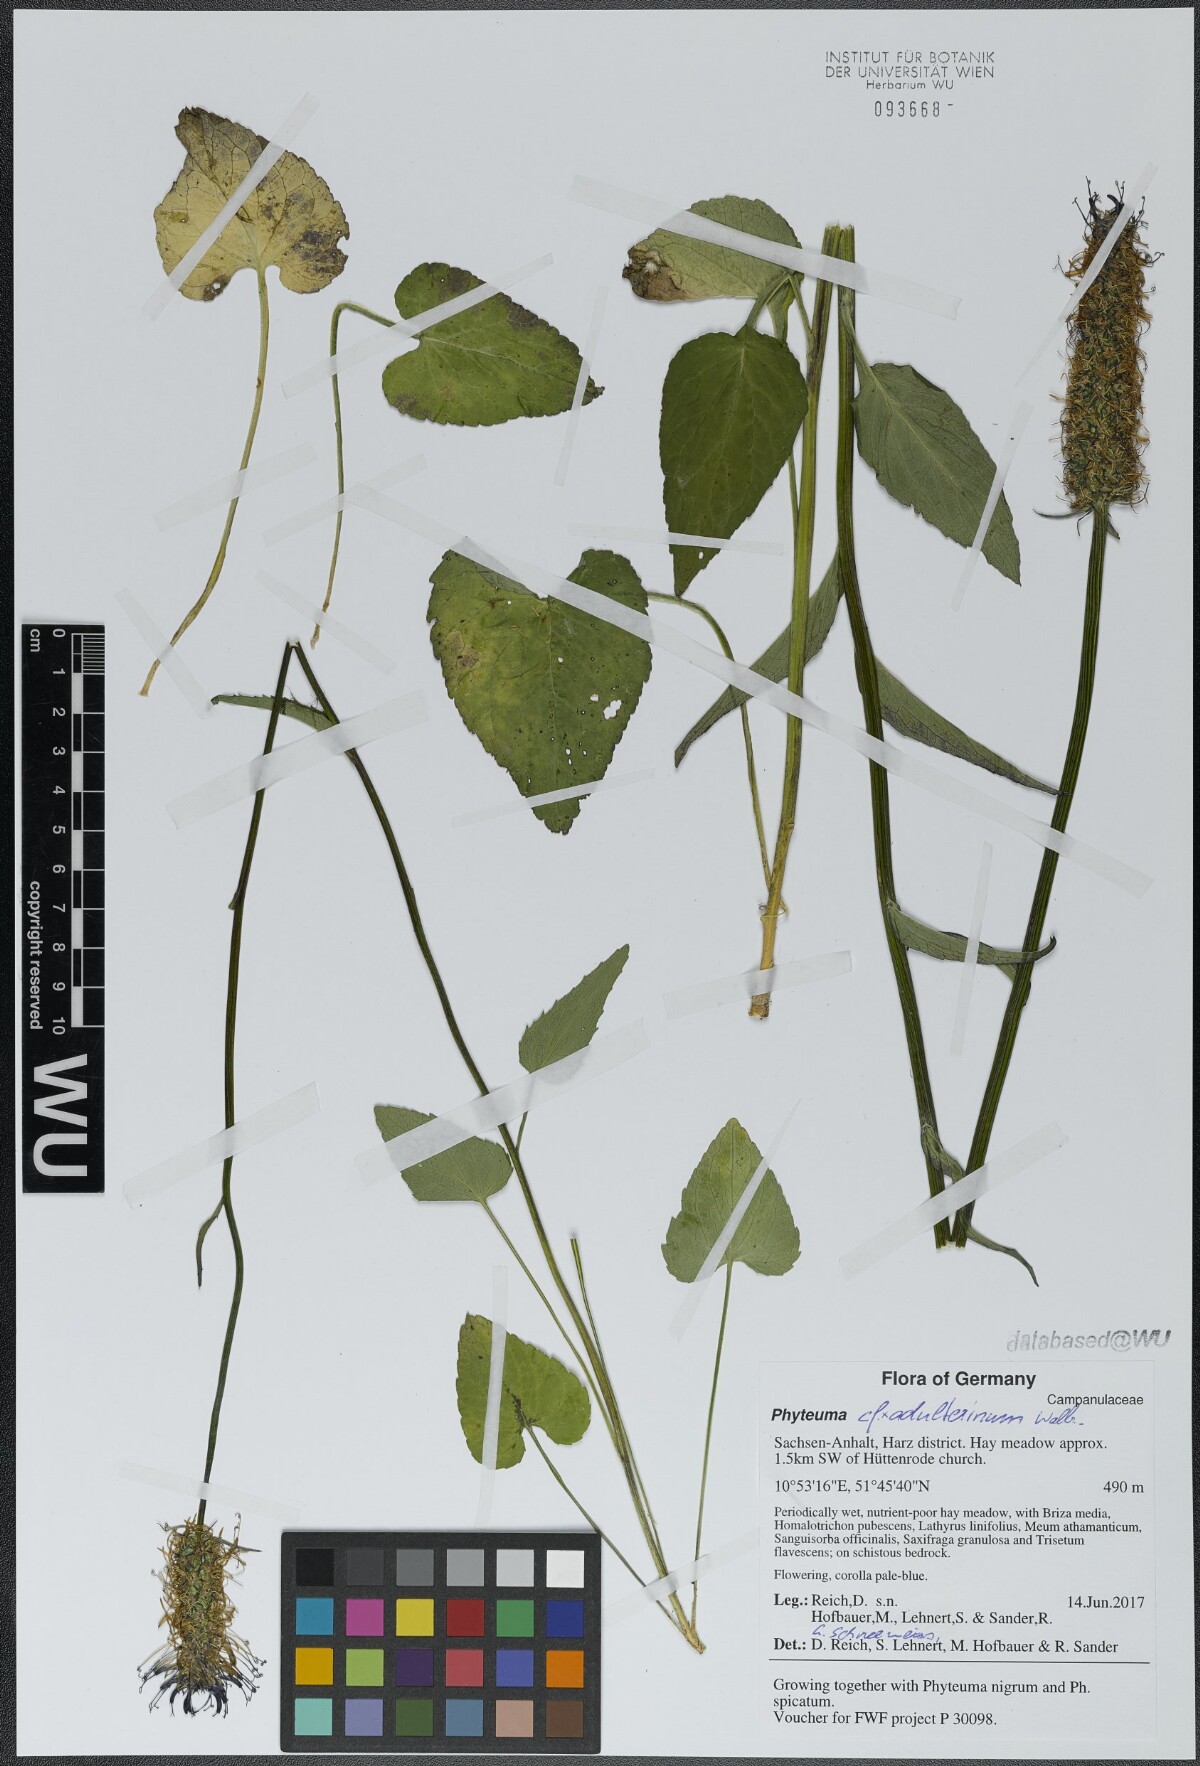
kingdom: Plantae
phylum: Tracheophyta
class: Magnoliopsida
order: Asterales
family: Campanulaceae
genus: Phyteuma
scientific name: Phyteuma adulterinum
